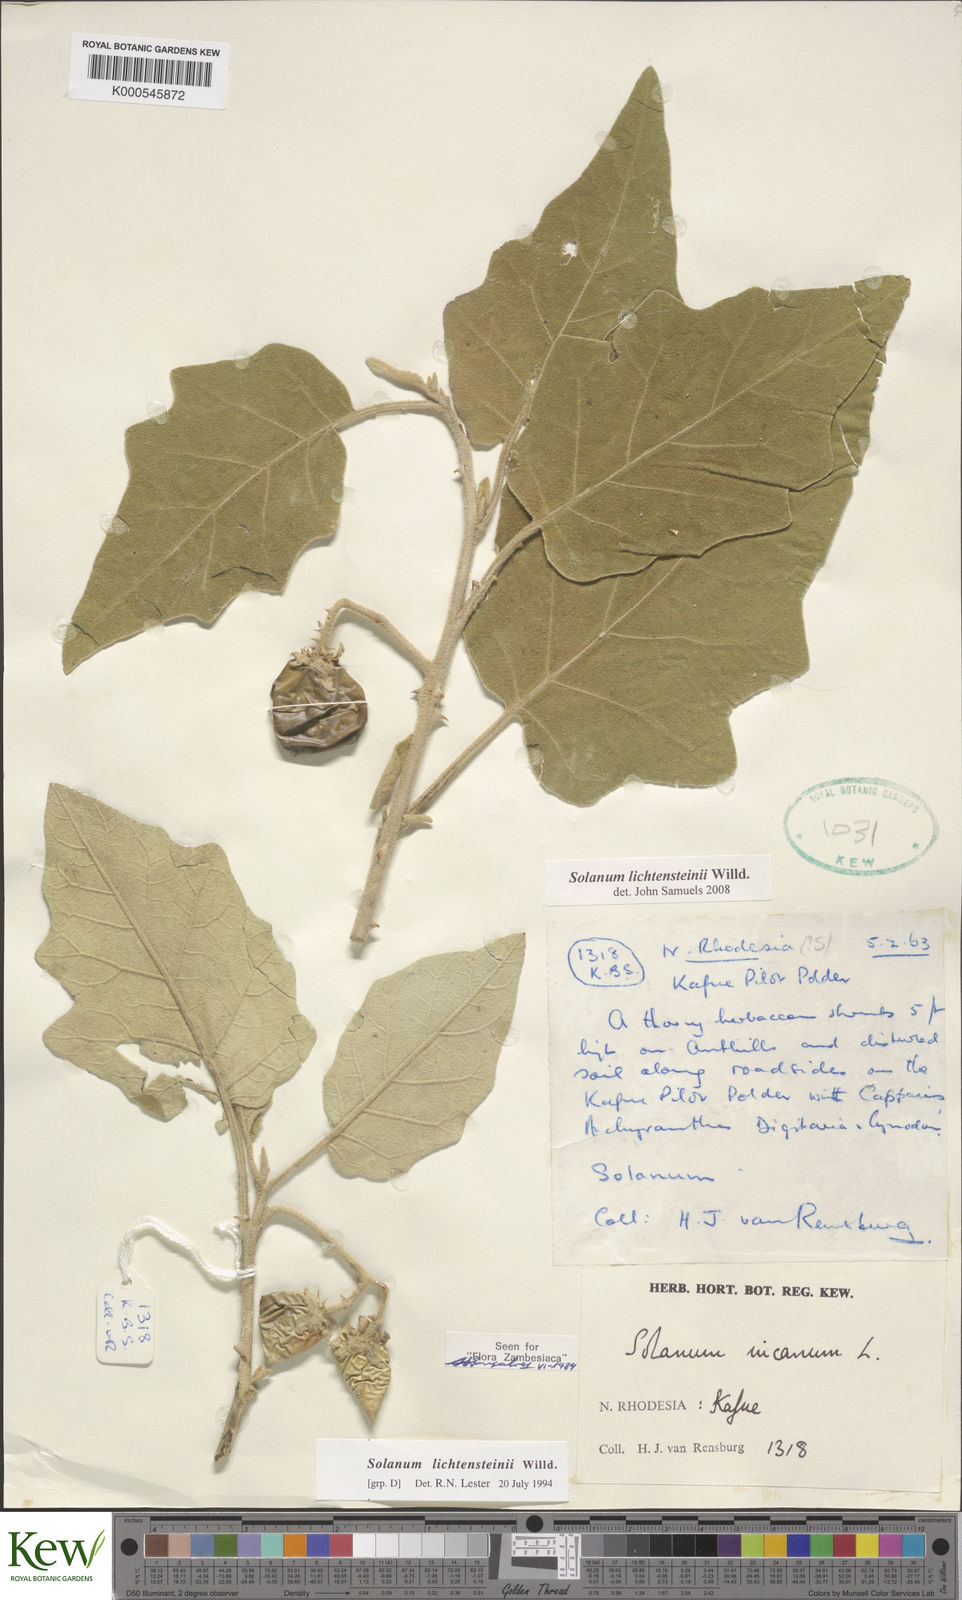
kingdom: Plantae
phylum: Tracheophyta
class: Magnoliopsida
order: Solanales
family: Solanaceae
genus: Solanum
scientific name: Solanum lichtensteinii
